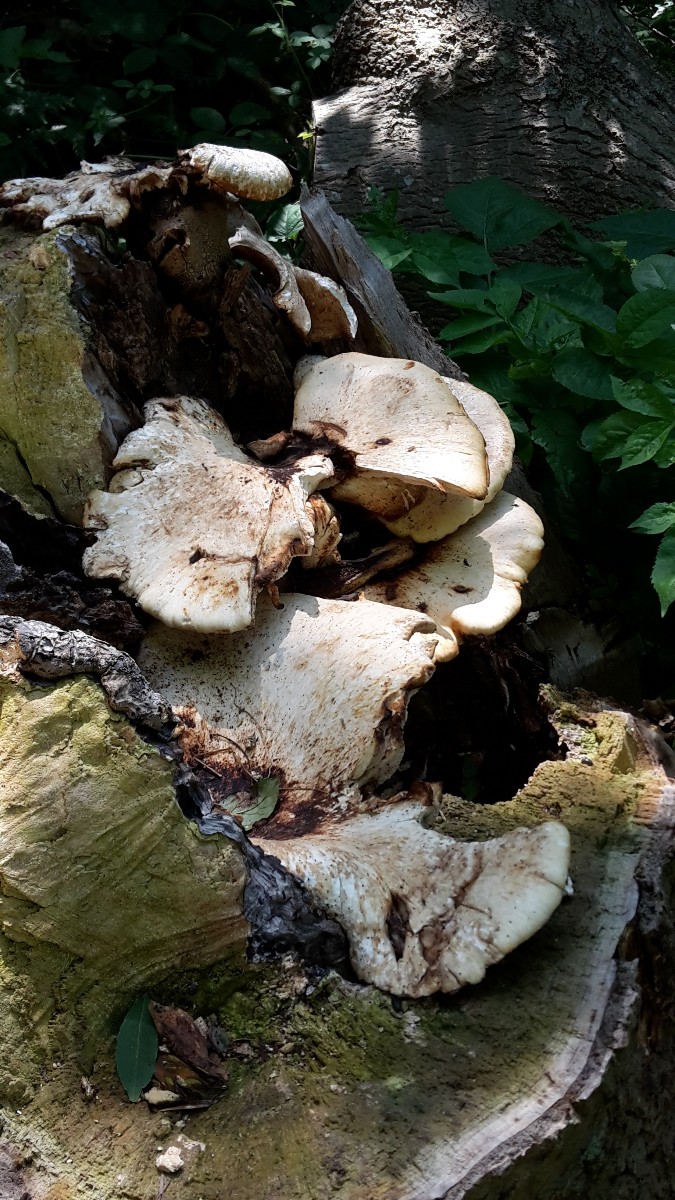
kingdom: Fungi
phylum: Basidiomycota
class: Agaricomycetes
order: Polyporales
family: Polyporaceae
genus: Cerioporus
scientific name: Cerioporus squamosus
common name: skællet stilkporesvamp
